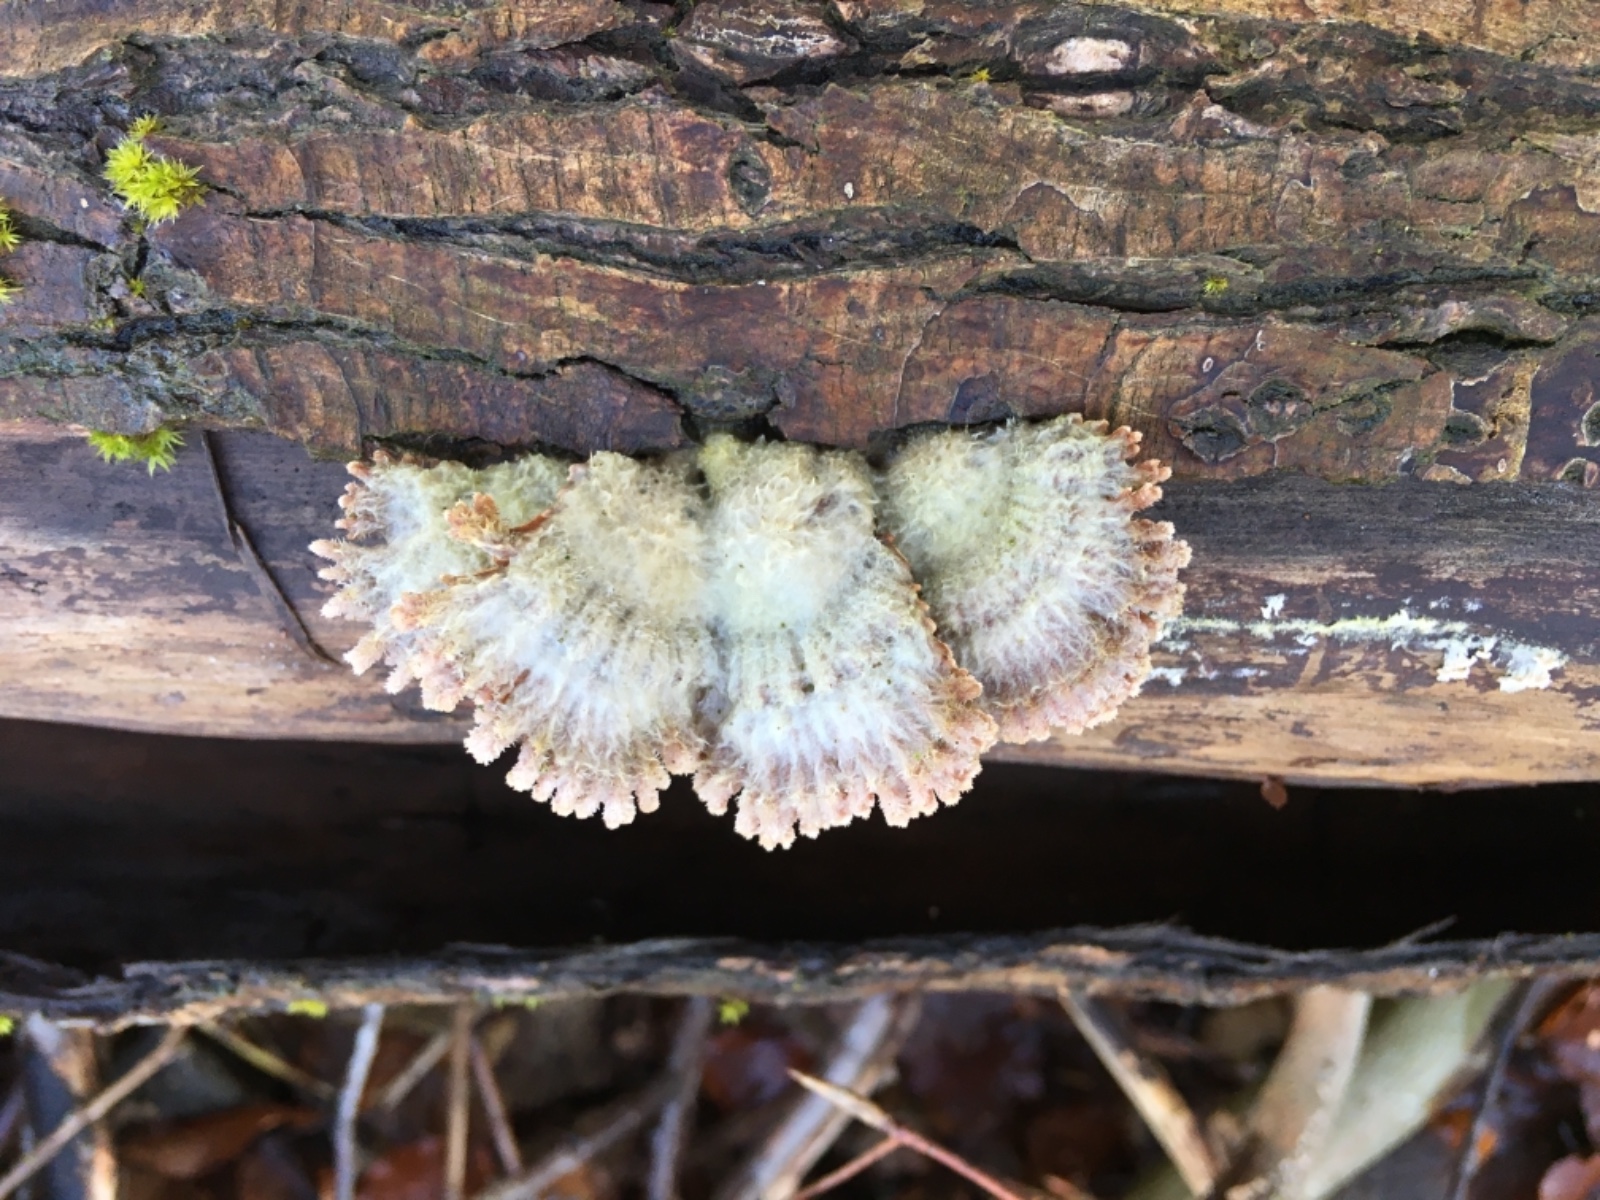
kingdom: Fungi
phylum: Basidiomycota
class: Agaricomycetes
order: Agaricales
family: Schizophyllaceae
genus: Schizophyllum
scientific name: Schizophyllum commune
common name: kløvblad
